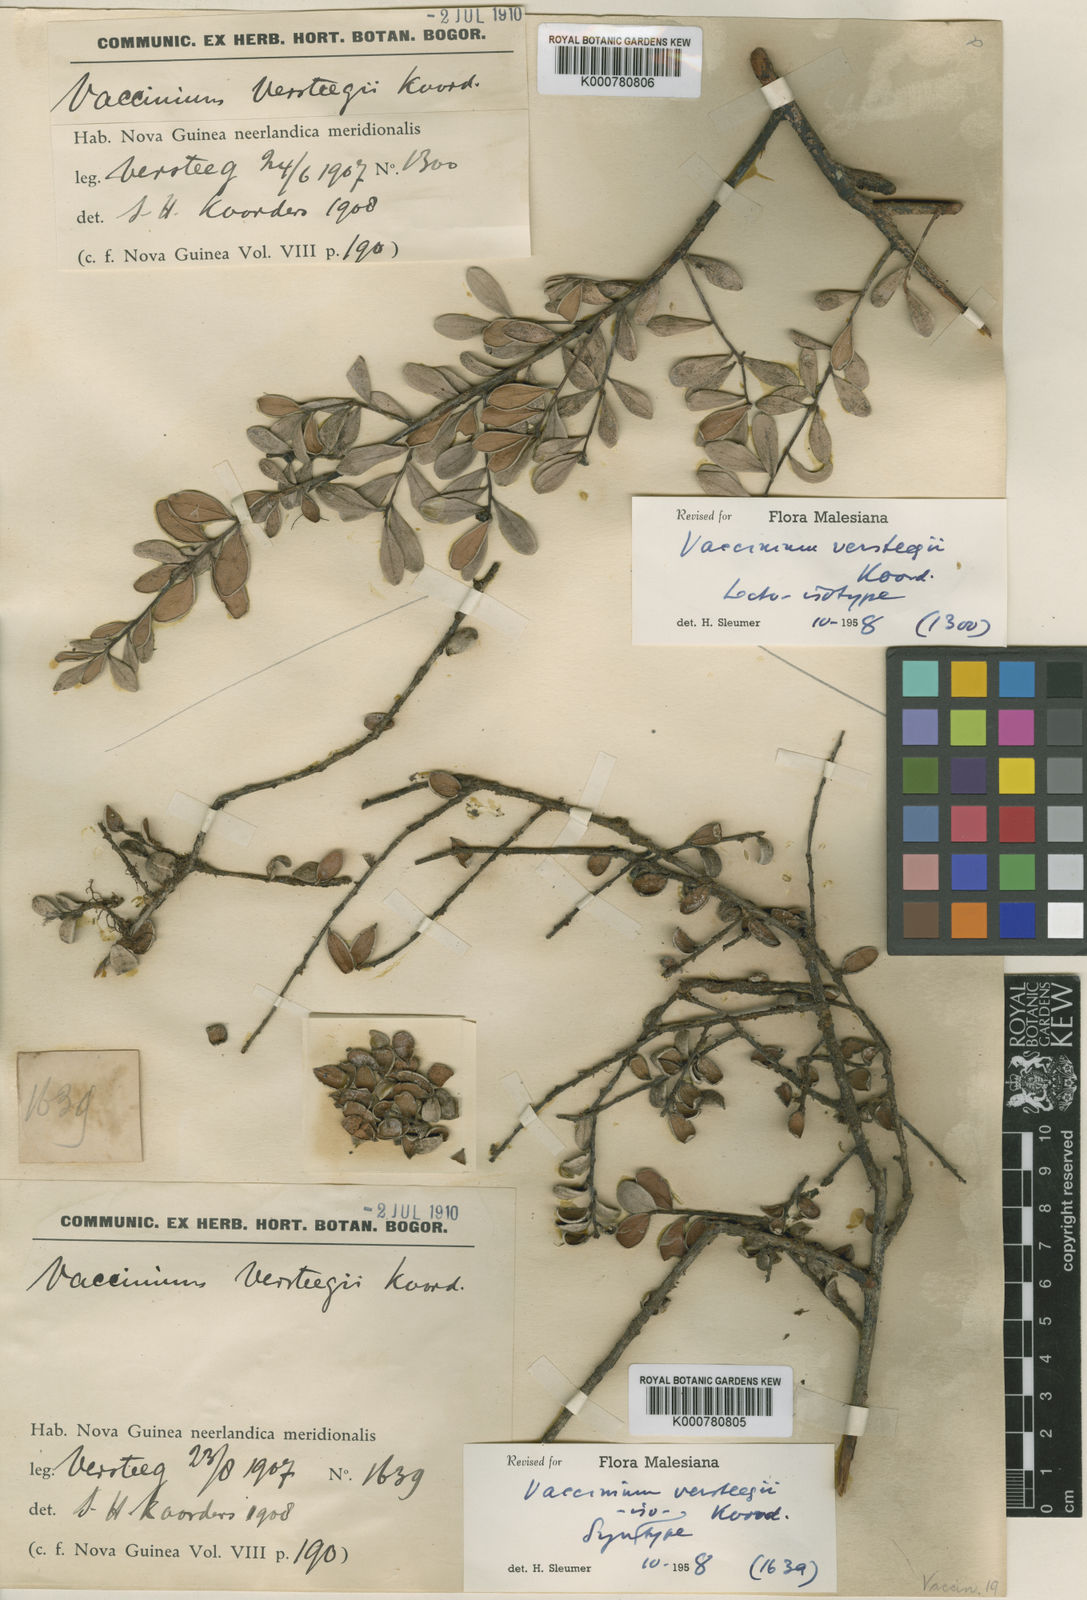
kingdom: Plantae
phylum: Tracheophyta
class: Magnoliopsida
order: Ericales
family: Ericaceae
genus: Vaccinium
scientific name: Vaccinium versteegii
